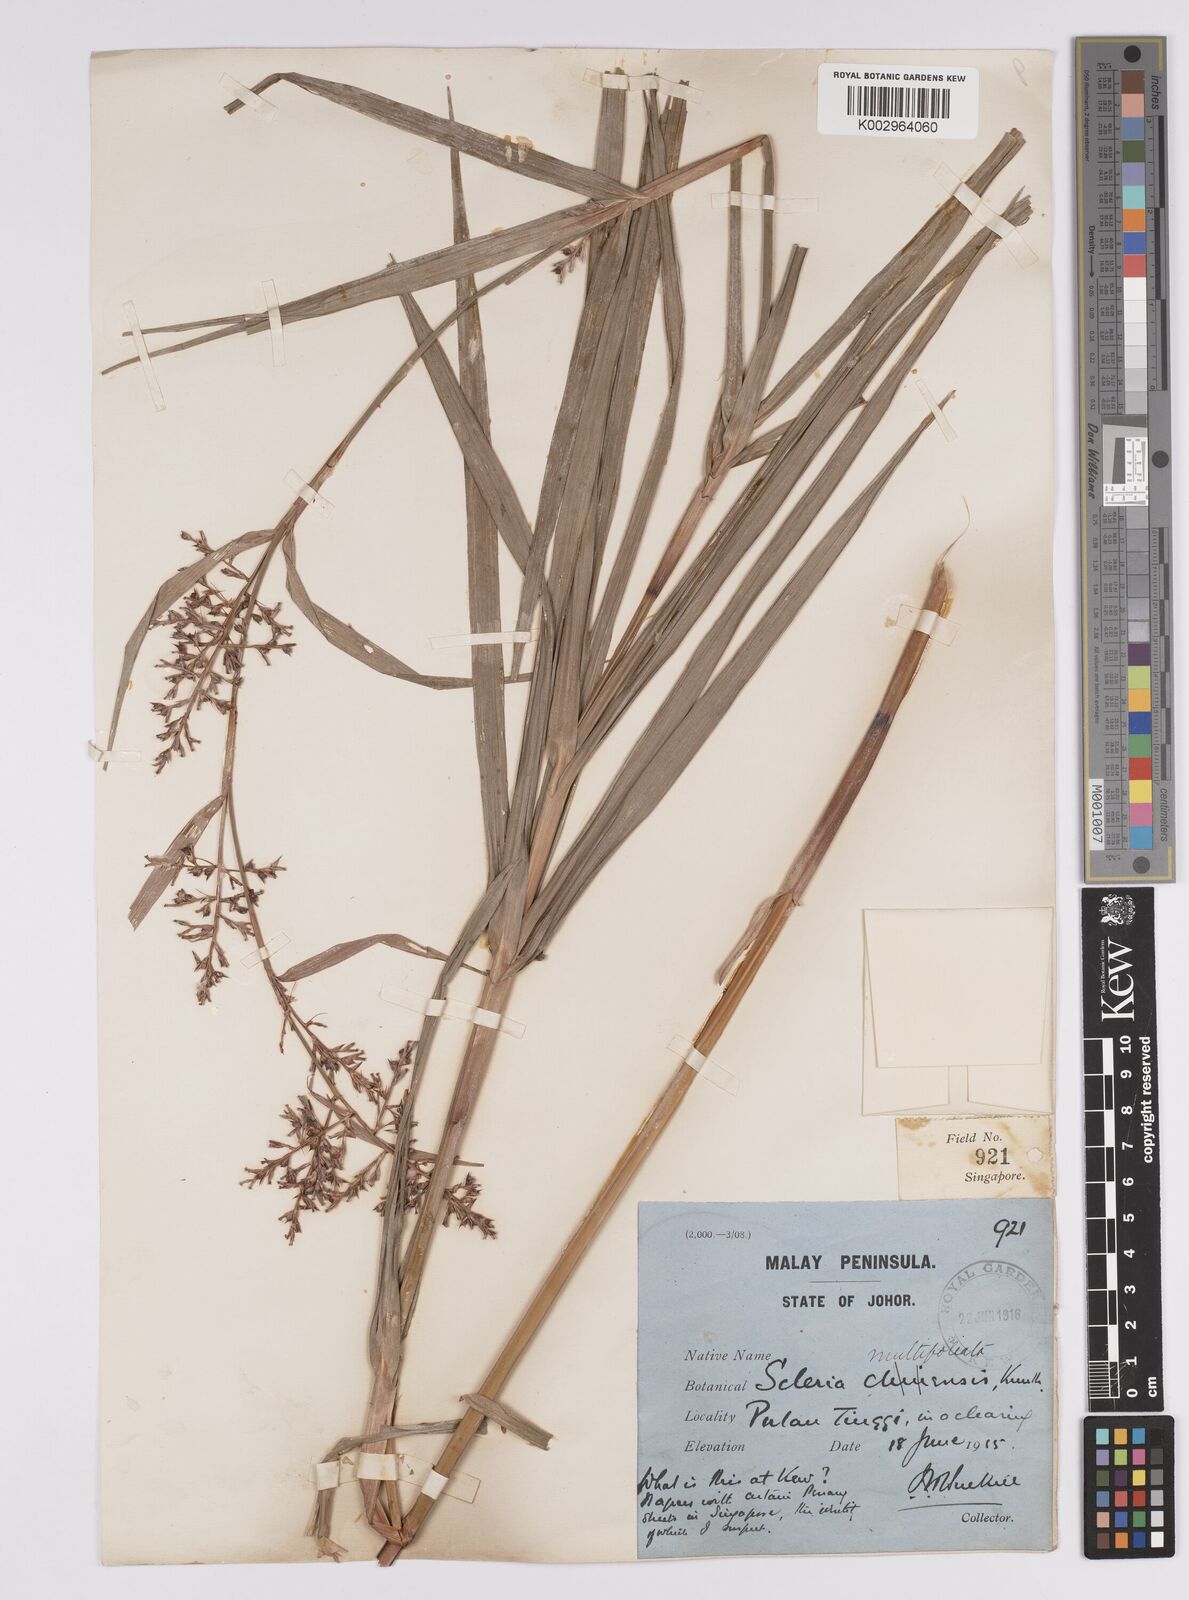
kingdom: Plantae
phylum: Tracheophyta
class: Liliopsida
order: Poales
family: Cyperaceae
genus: Scleria
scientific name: Scleria purpurascens
